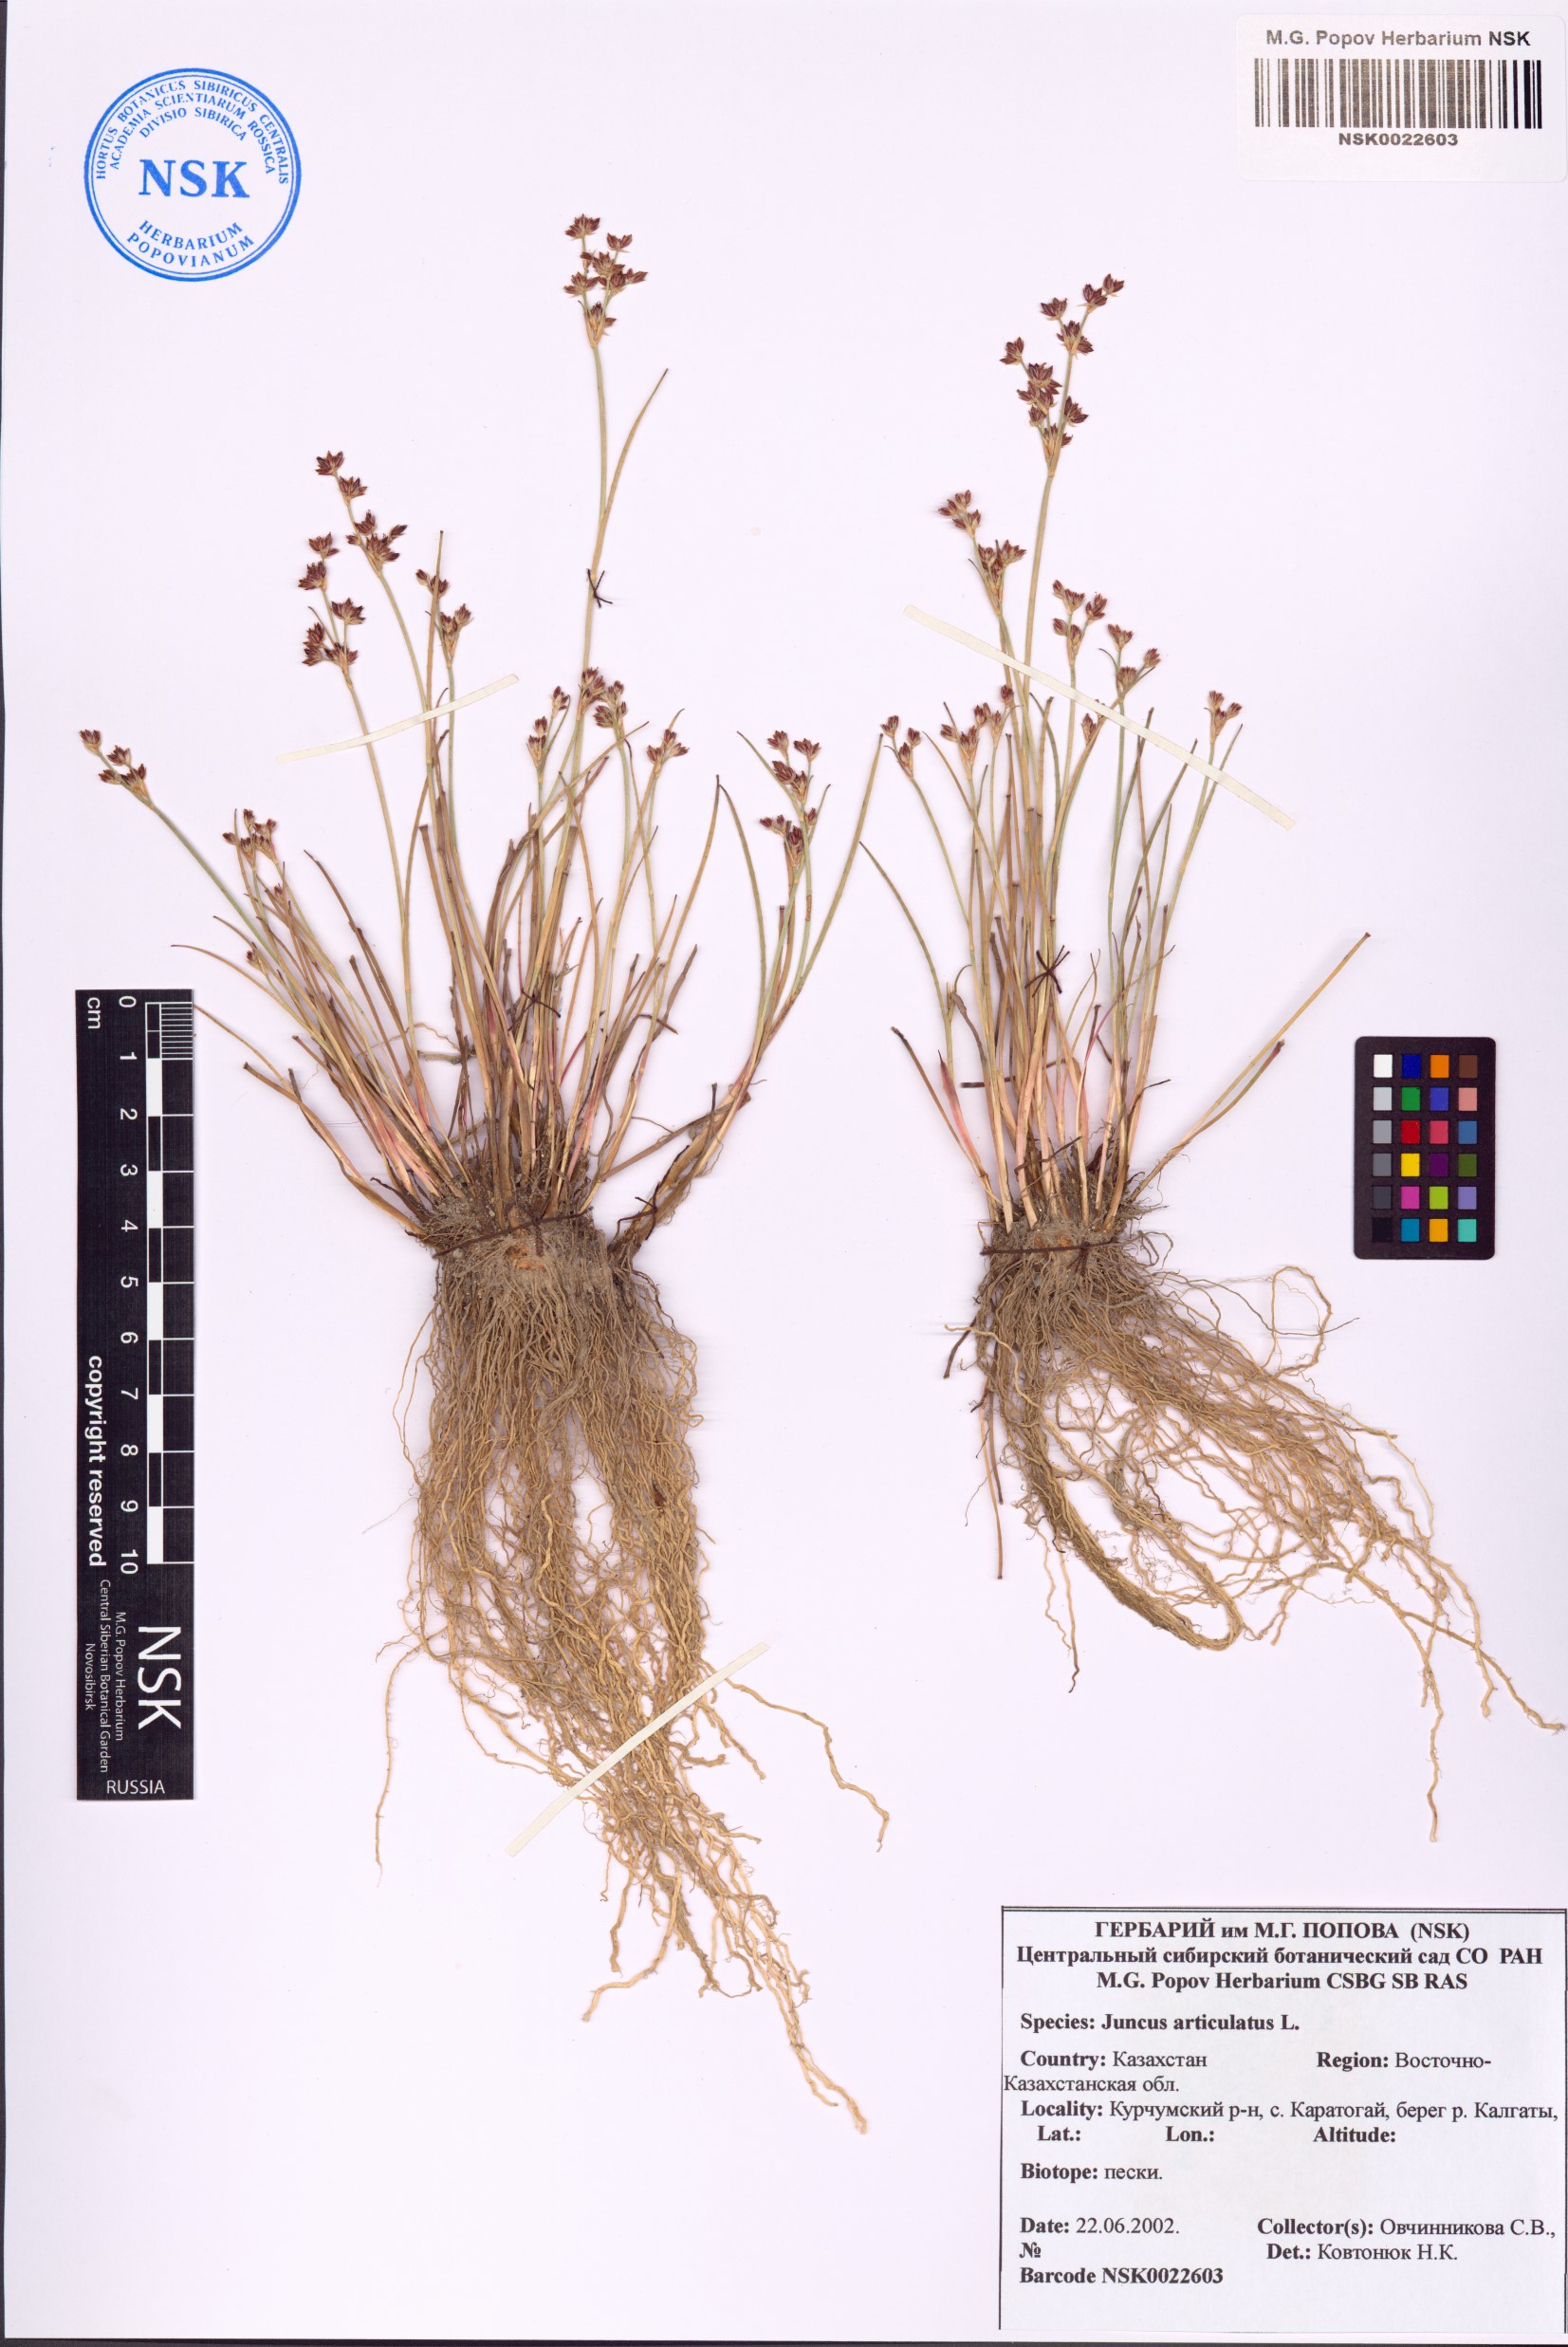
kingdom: Plantae
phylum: Tracheophyta
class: Liliopsida
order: Poales
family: Juncaceae
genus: Juncus
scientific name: Juncus articulatus
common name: Jointed rush
